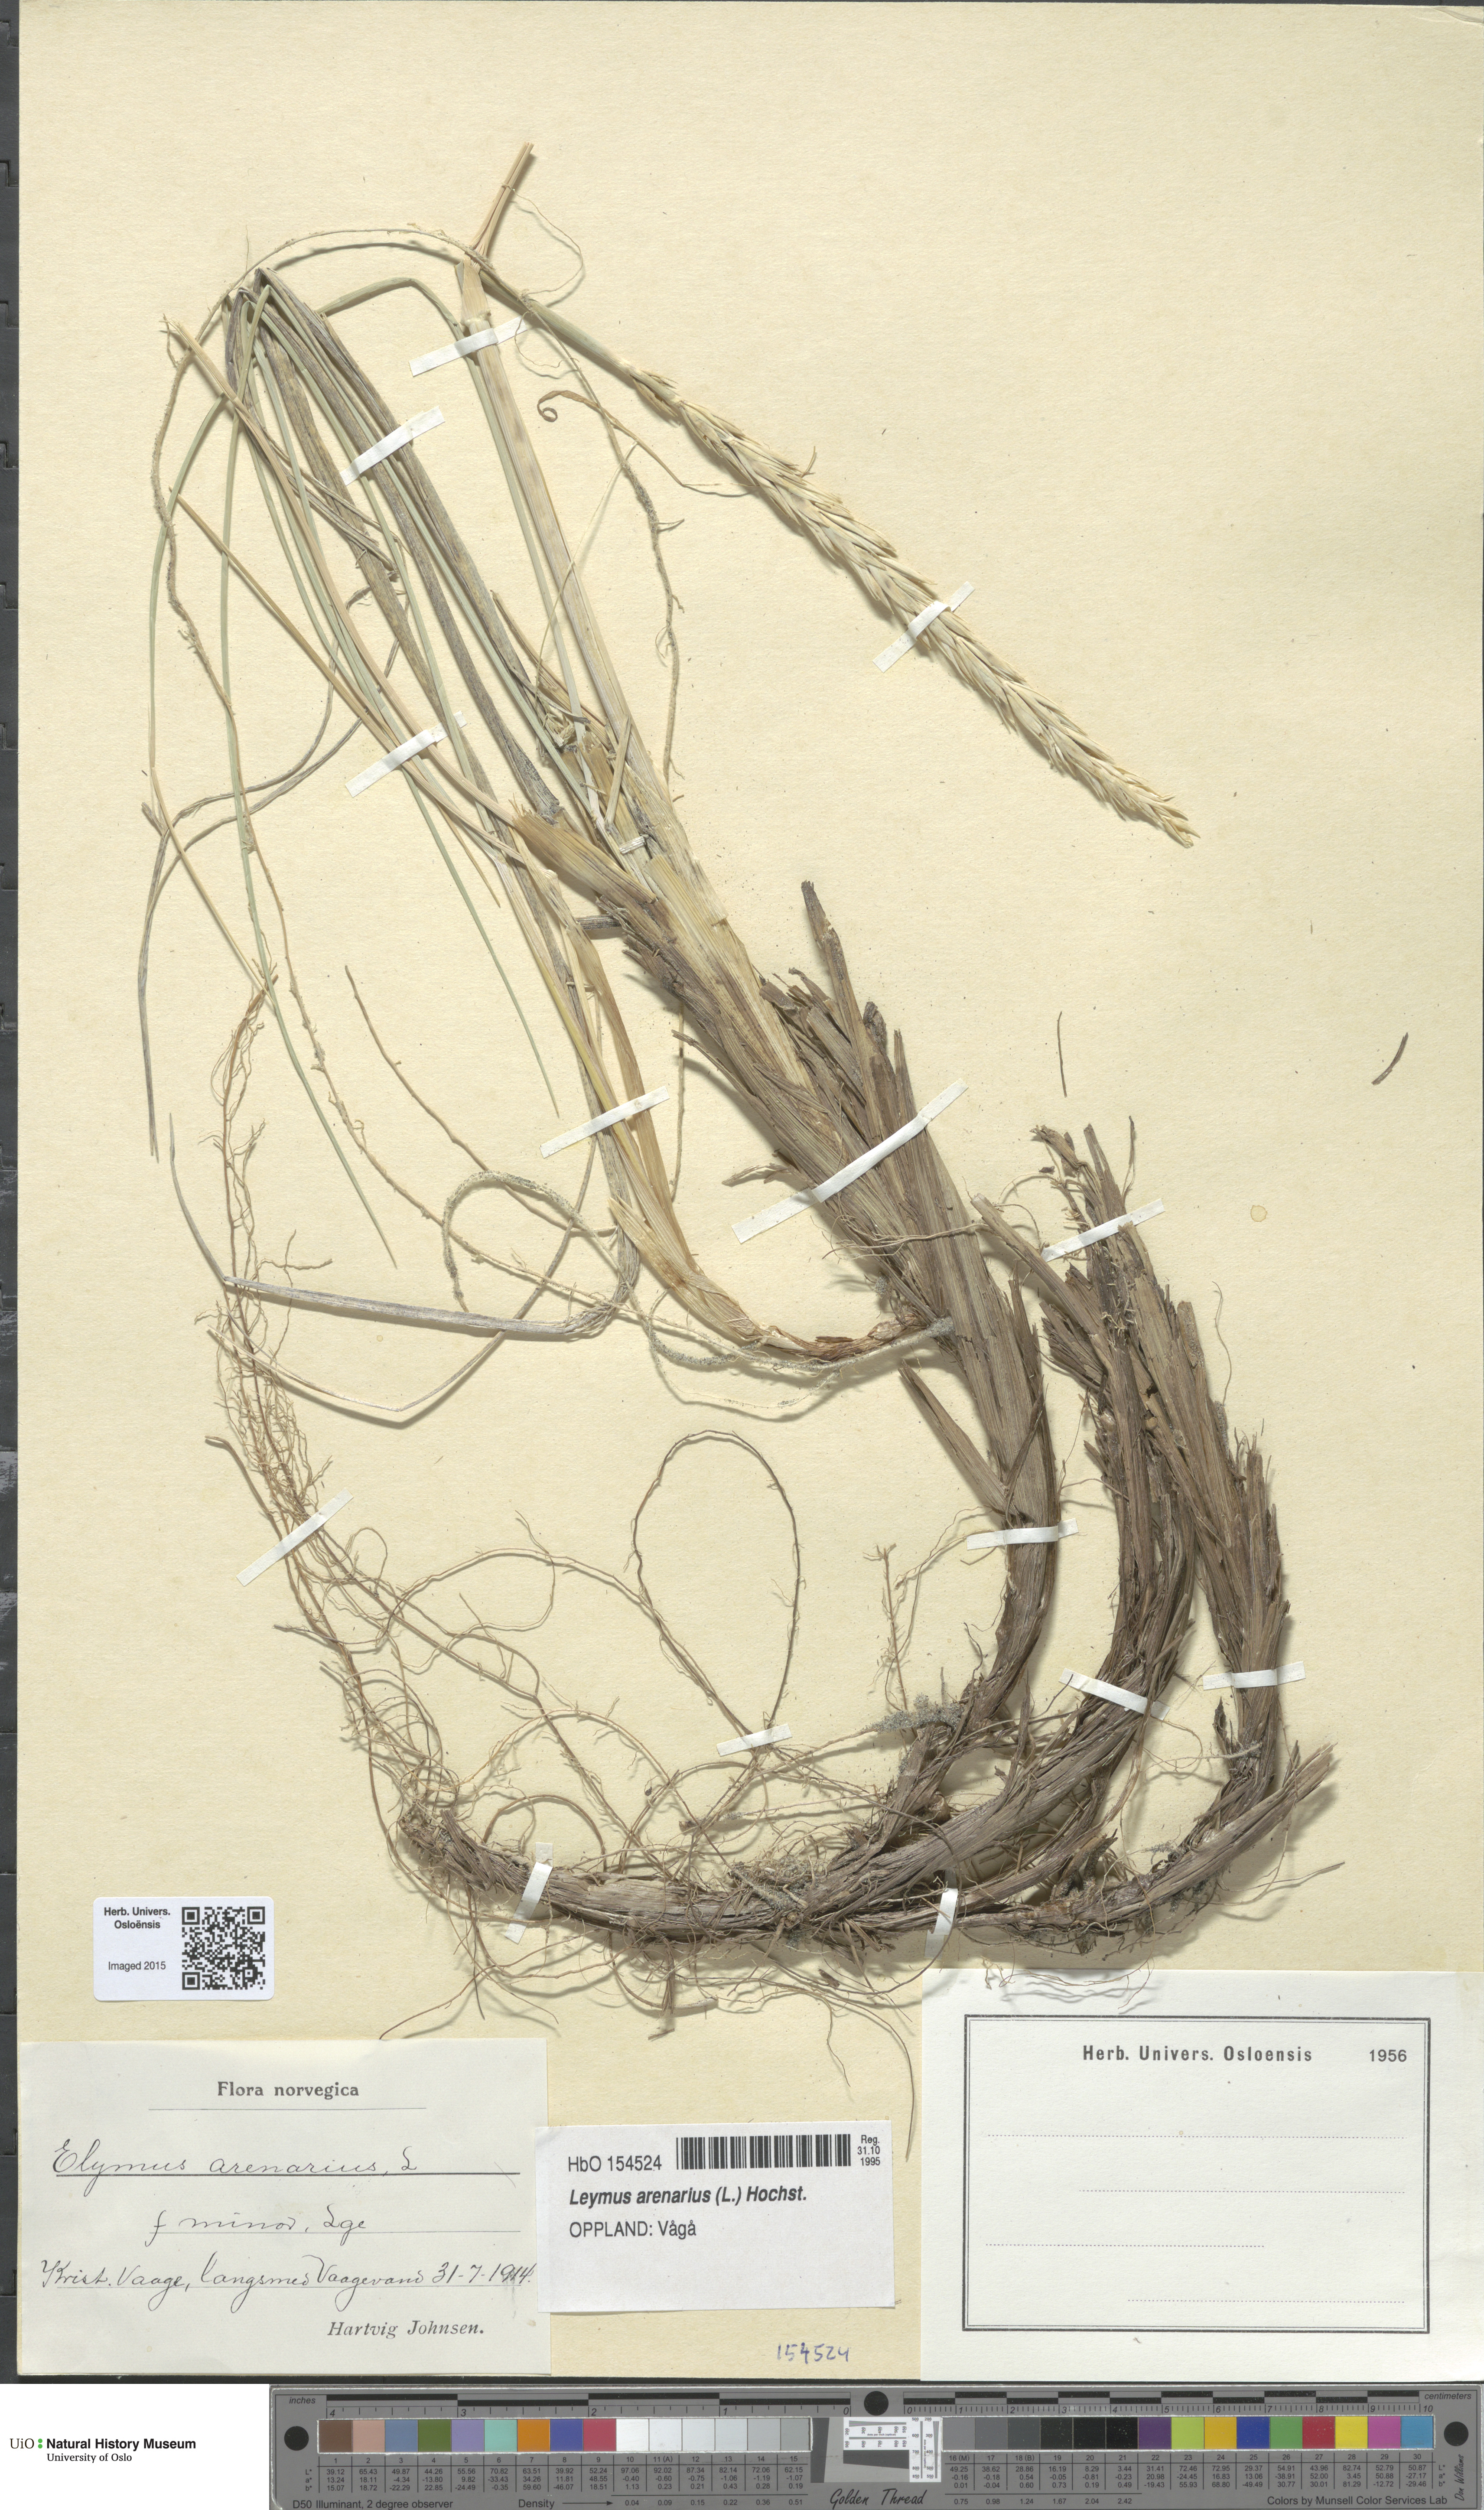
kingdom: Plantae
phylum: Tracheophyta
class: Liliopsida
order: Poales
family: Poaceae
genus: Leymus
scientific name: Leymus arenarius
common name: Lyme-grass
